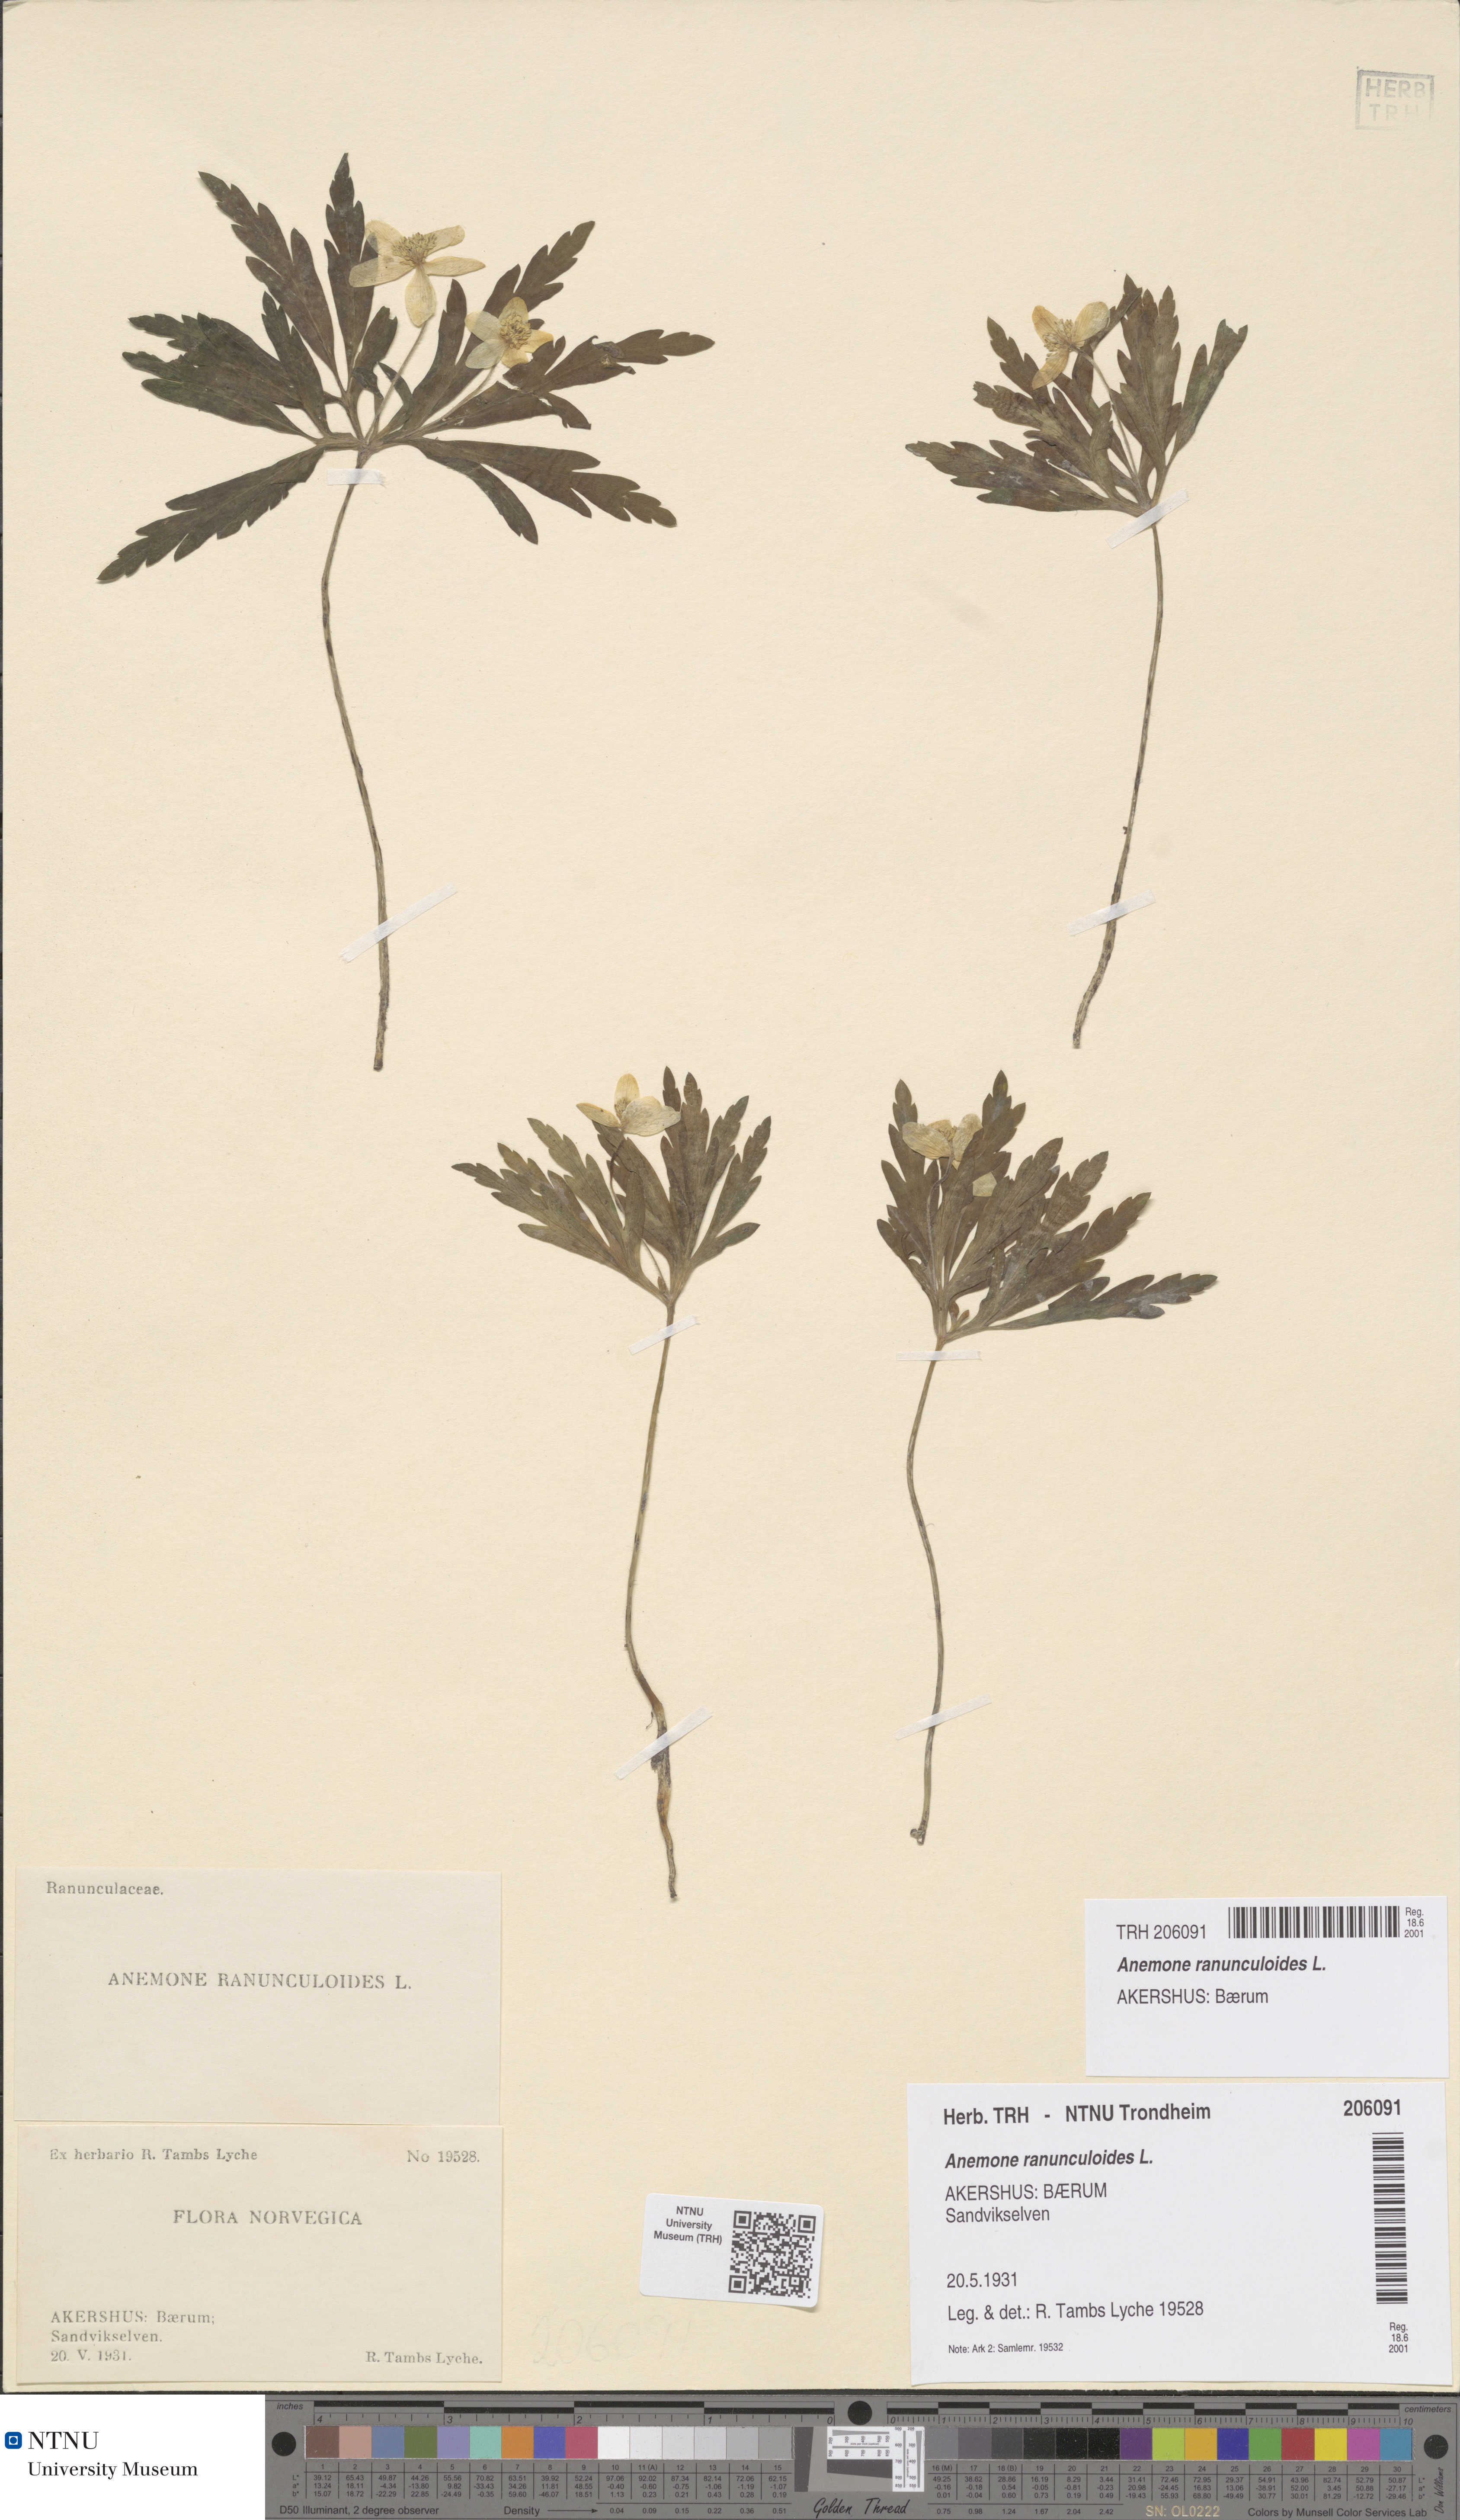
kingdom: Plantae
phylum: Tracheophyta
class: Magnoliopsida
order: Ranunculales
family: Ranunculaceae
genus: Anemone
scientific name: Anemone ranunculoides
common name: Yellow anemone
